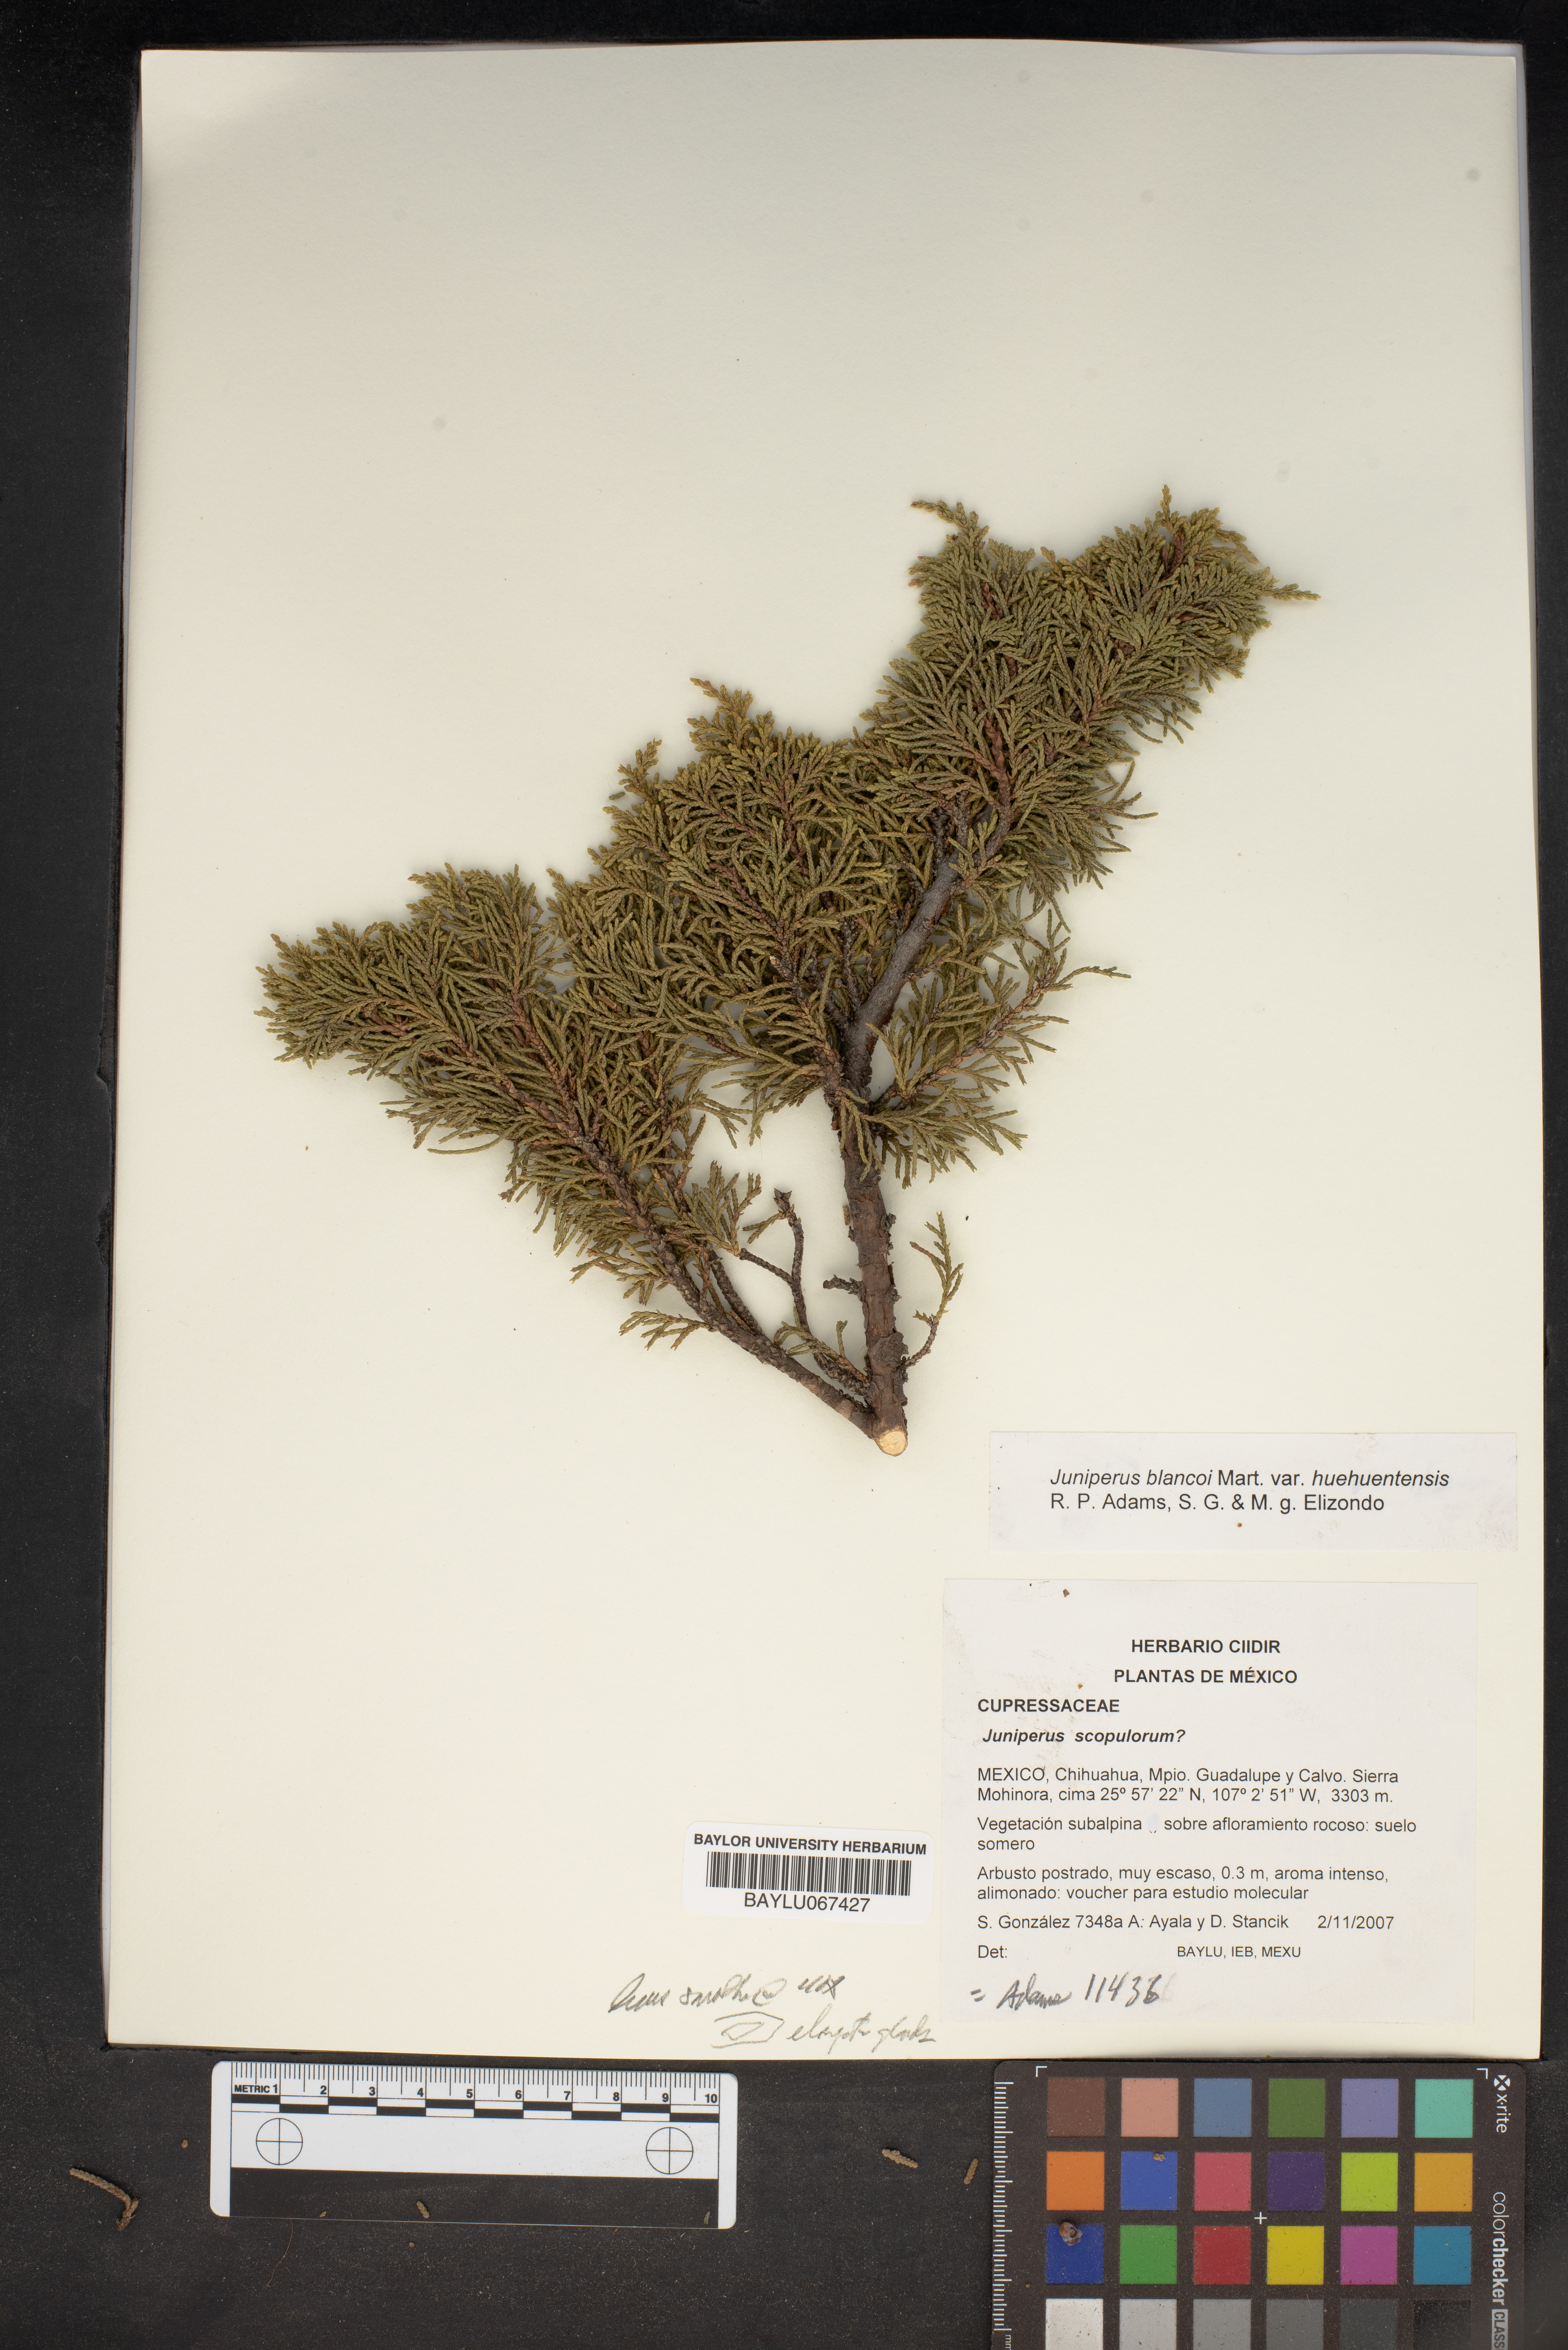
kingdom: Plantae
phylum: Tracheophyta
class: Pinopsida
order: Pinales
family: Cupressaceae
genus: Juniperus
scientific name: Juniperus blancoi
